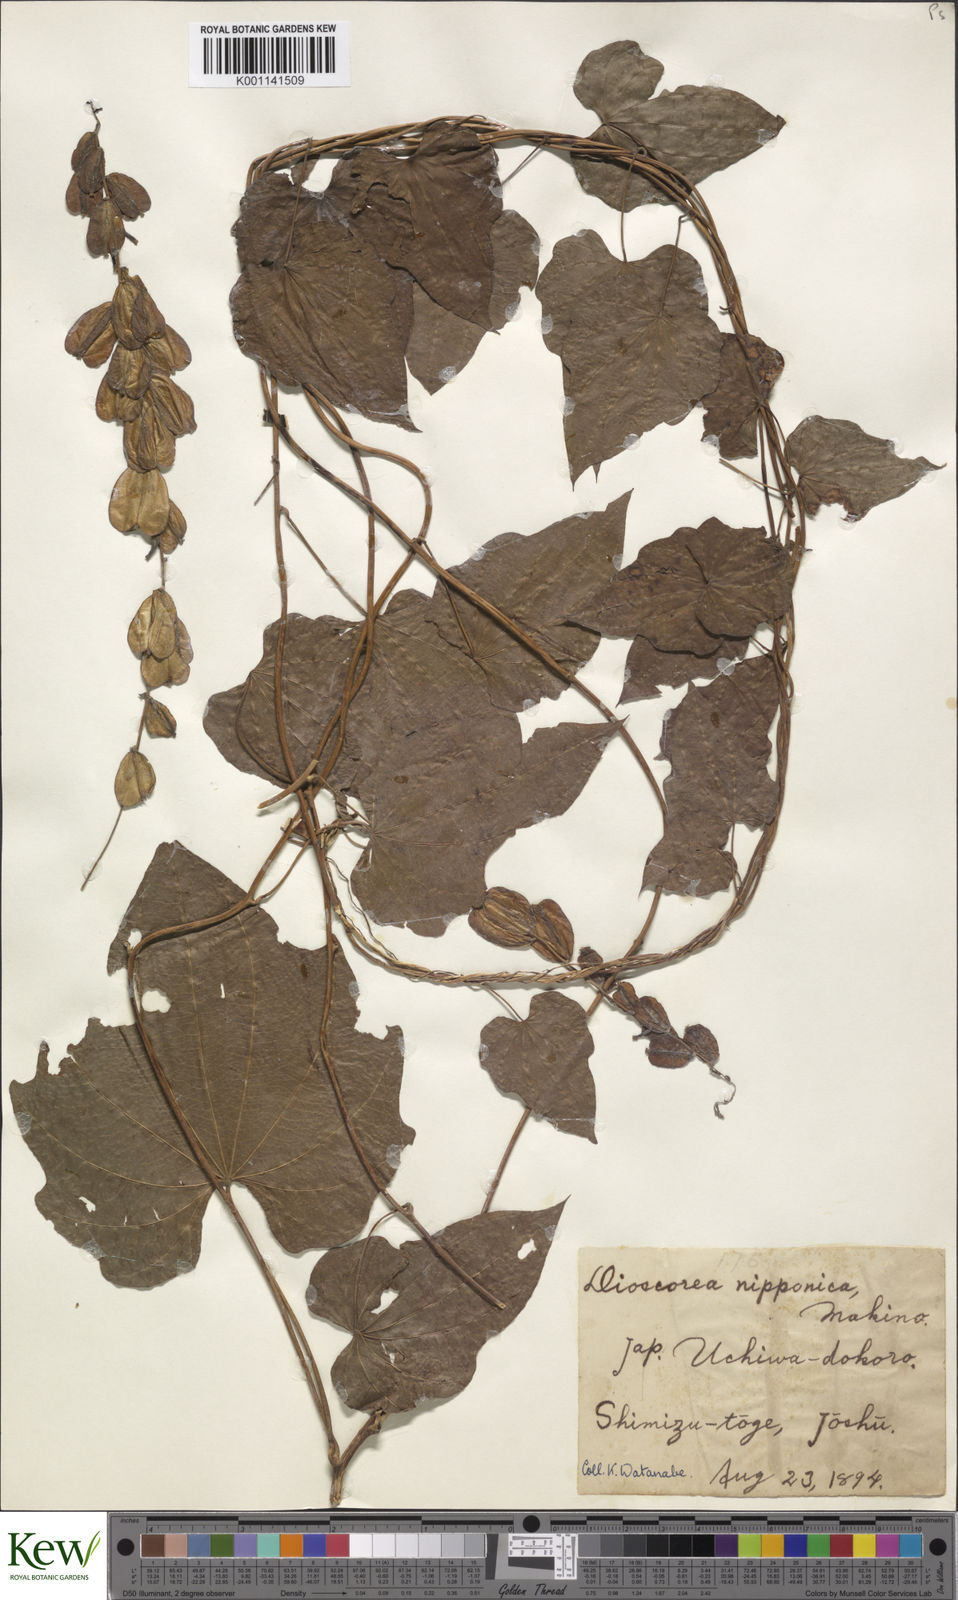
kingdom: Plantae
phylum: Tracheophyta
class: Liliopsida
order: Dioscoreales
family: Dioscoreaceae
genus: Dioscorea
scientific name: Dioscorea nipponica
